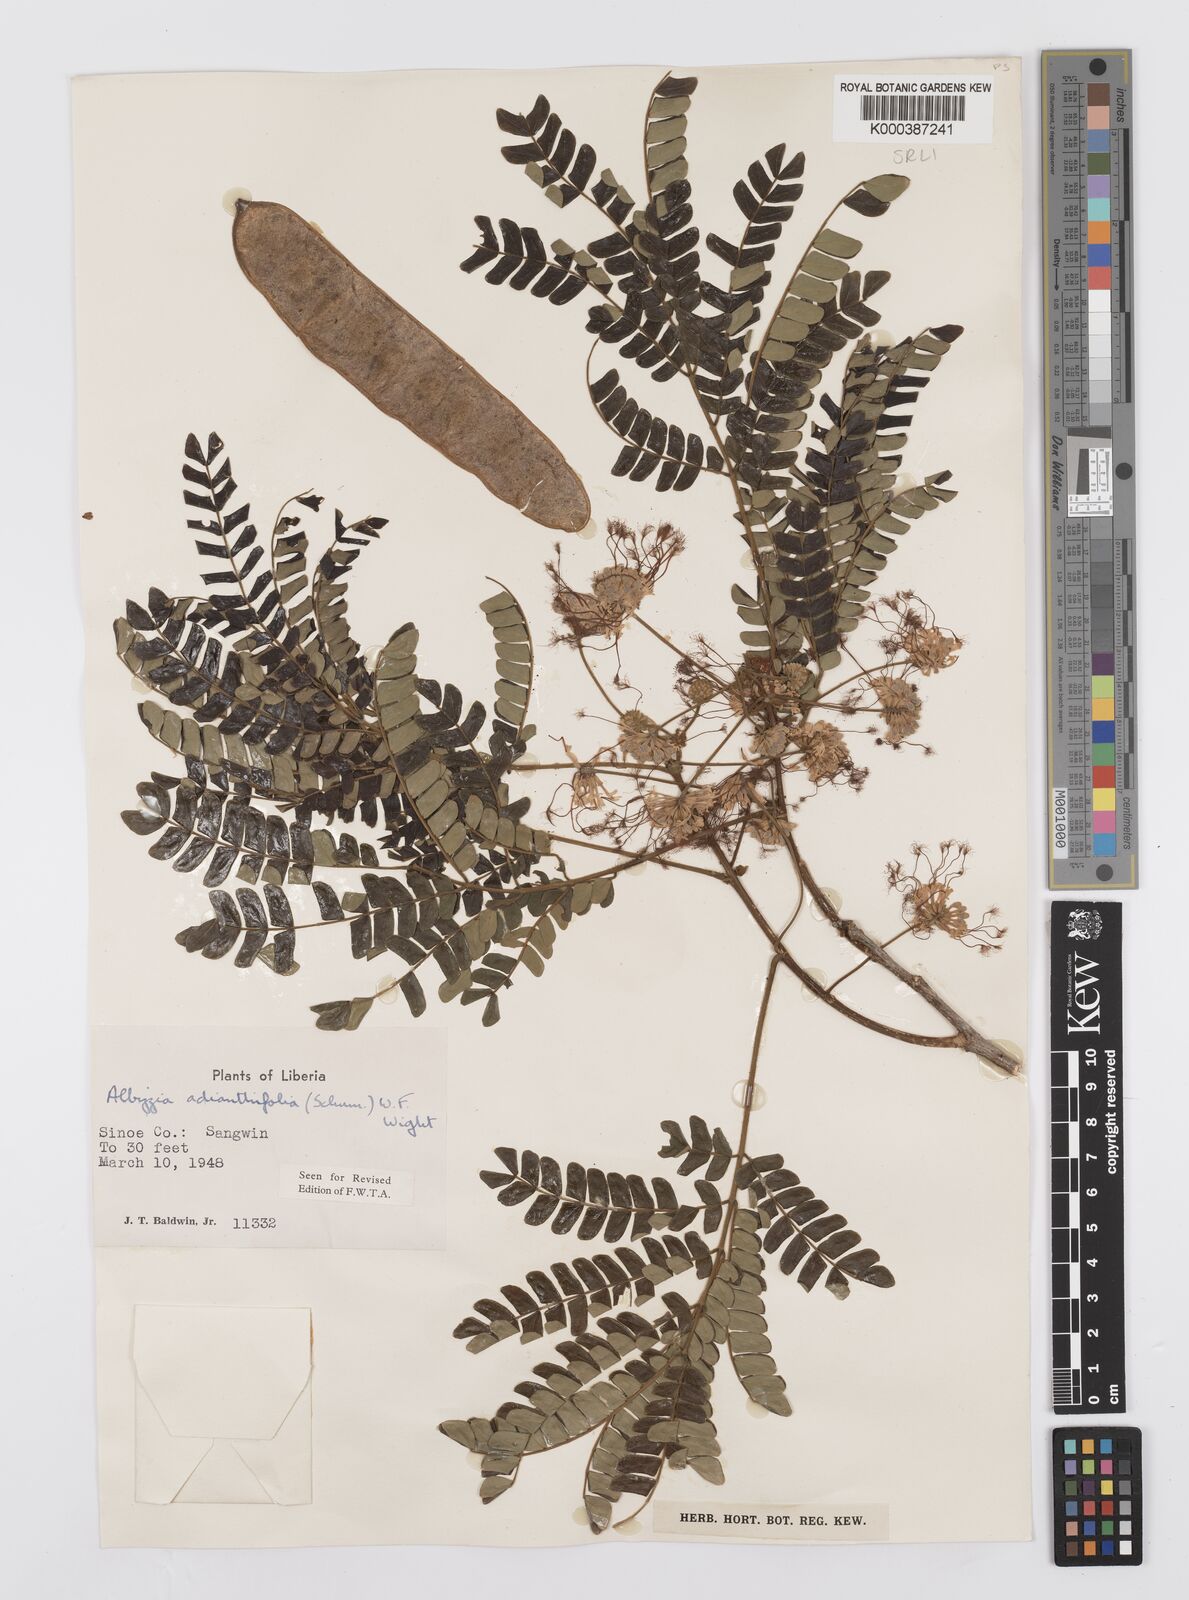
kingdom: Plantae
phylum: Tracheophyta
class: Magnoliopsida
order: Fabales
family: Fabaceae
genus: Albizia
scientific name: Albizia adianthifolia
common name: West african albizia
